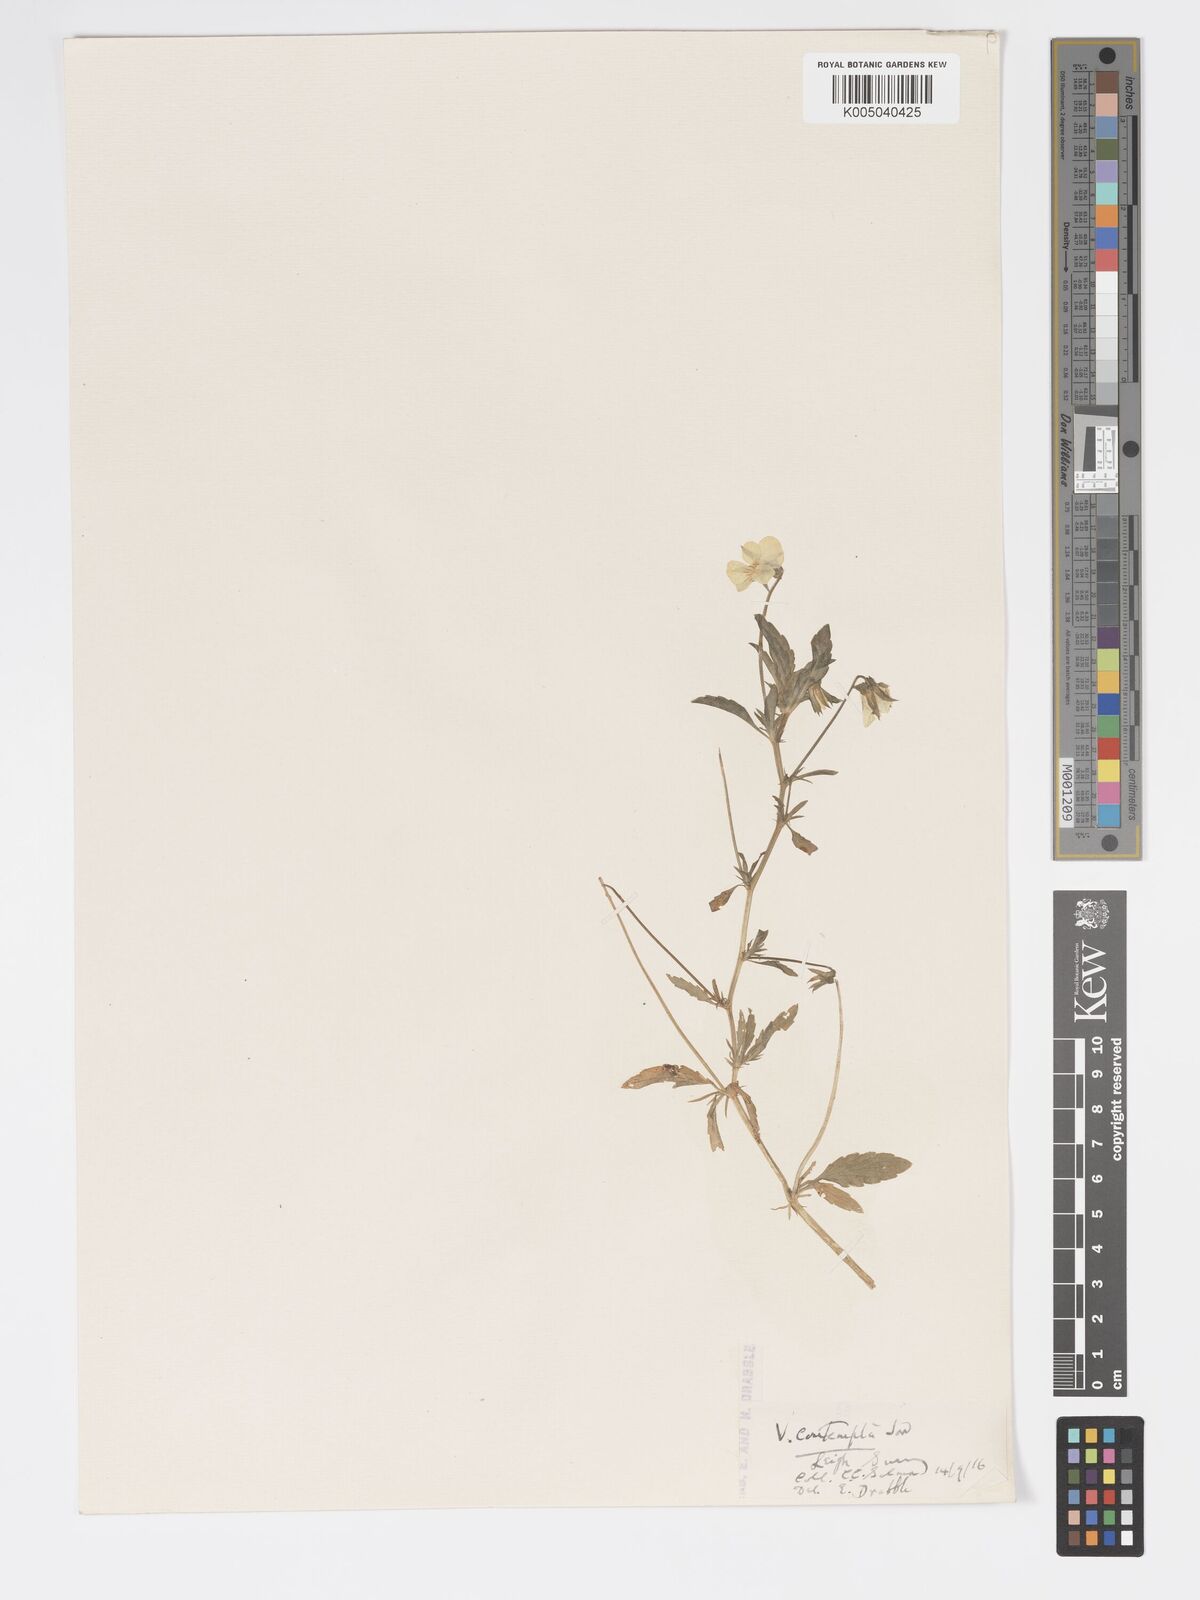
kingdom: Plantae
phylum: Tracheophyta
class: Magnoliopsida
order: Malpighiales
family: Violaceae
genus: Viola
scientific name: Viola arvensis
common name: Field pansy
